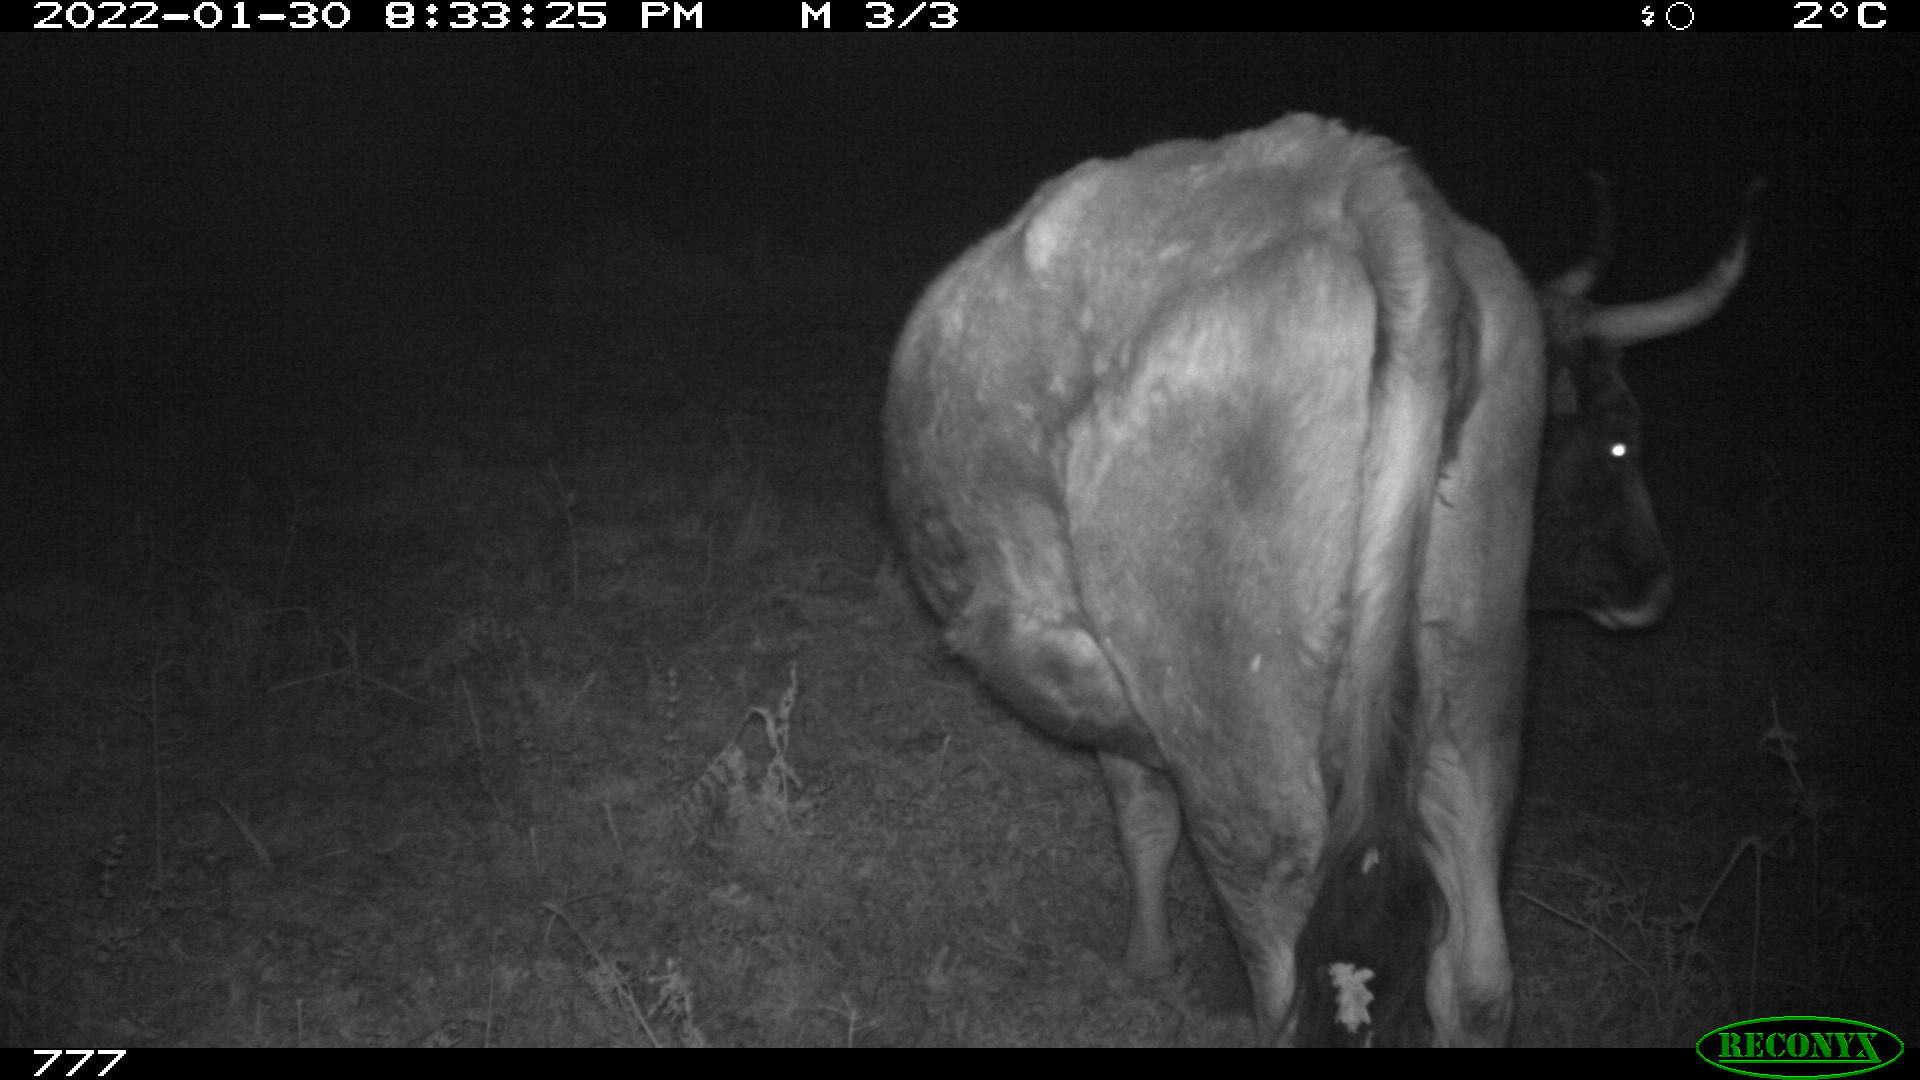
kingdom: Animalia
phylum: Chordata
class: Mammalia
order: Artiodactyla
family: Bovidae
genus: Bos
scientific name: Bos taurus
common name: Domesticated cattle
